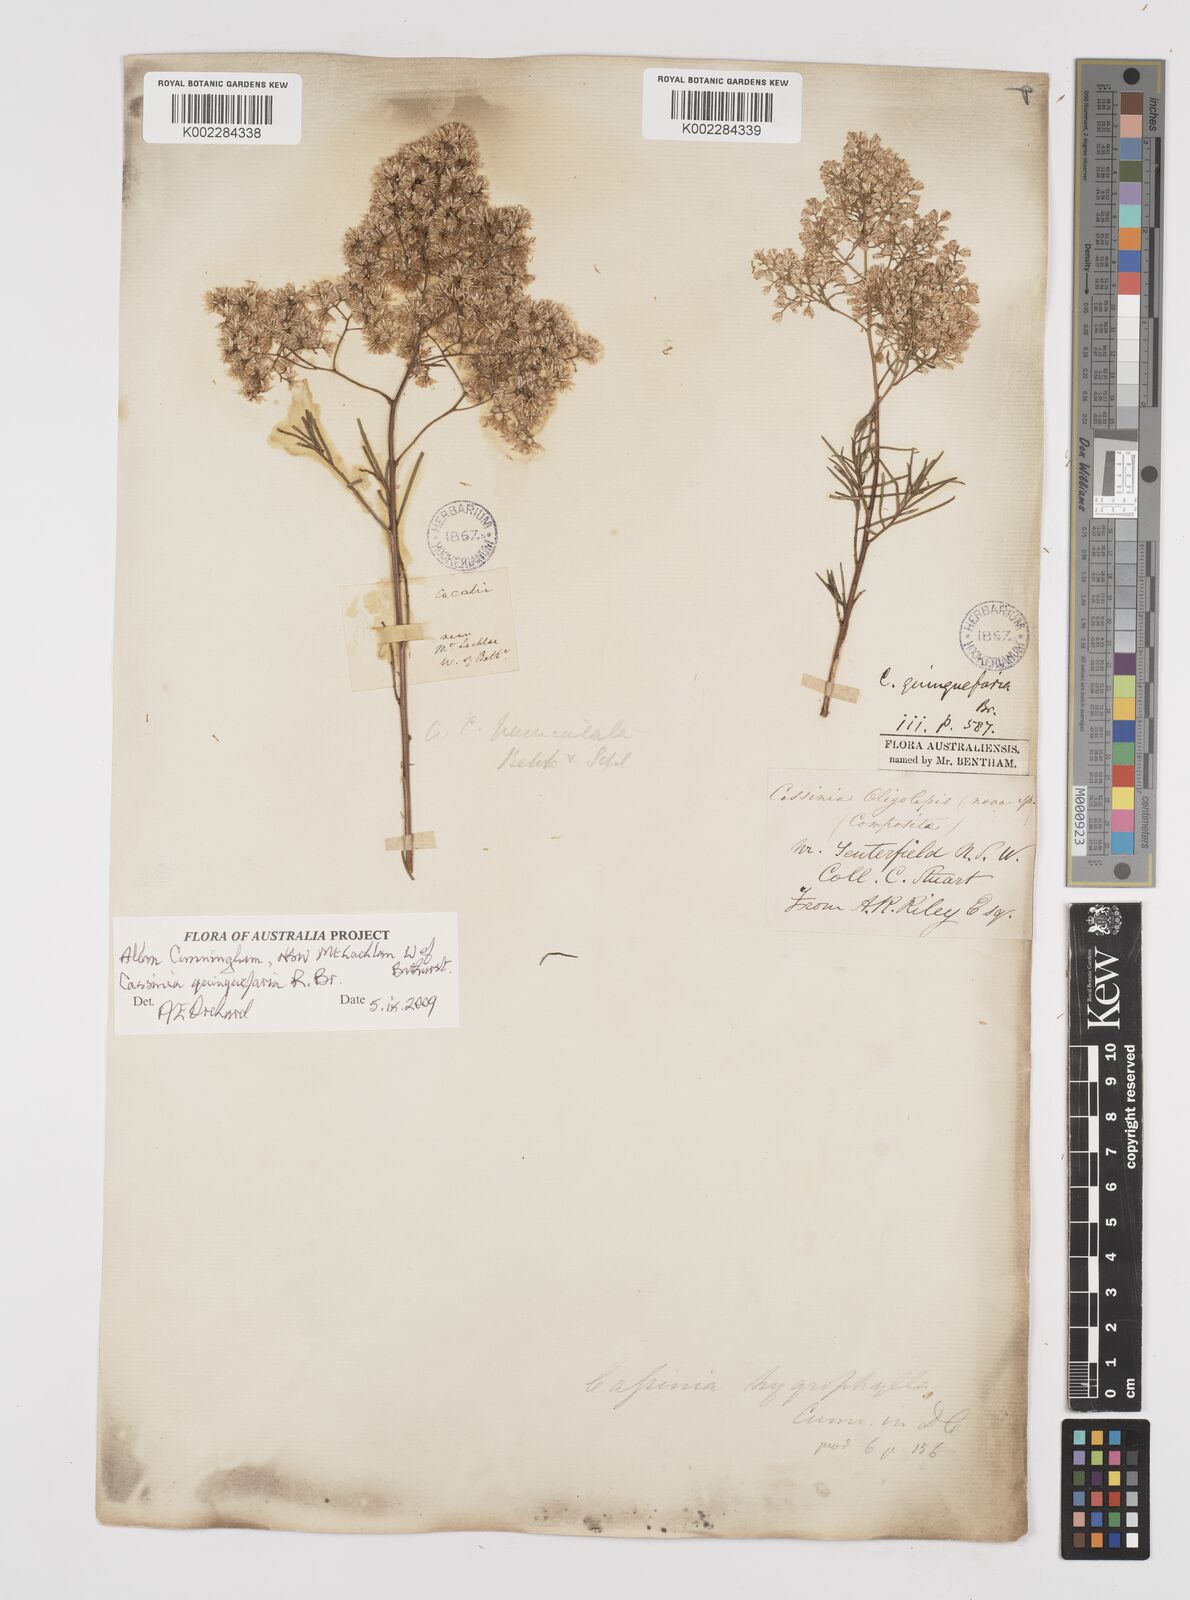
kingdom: Plantae
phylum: Tracheophyta
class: Magnoliopsida
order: Asterales
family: Asteraceae
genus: Cassinia
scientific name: Cassinia quinquefaria
